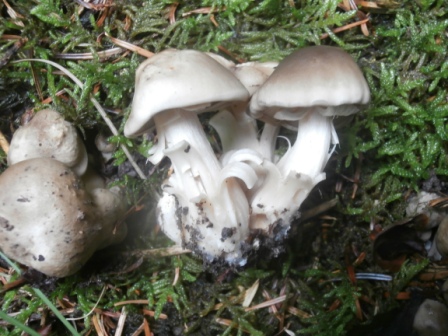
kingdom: Fungi
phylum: Basidiomycota
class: Agaricomycetes
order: Agaricales
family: Lyophyllaceae
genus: Lyophyllum
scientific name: Lyophyllum
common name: gråblad
